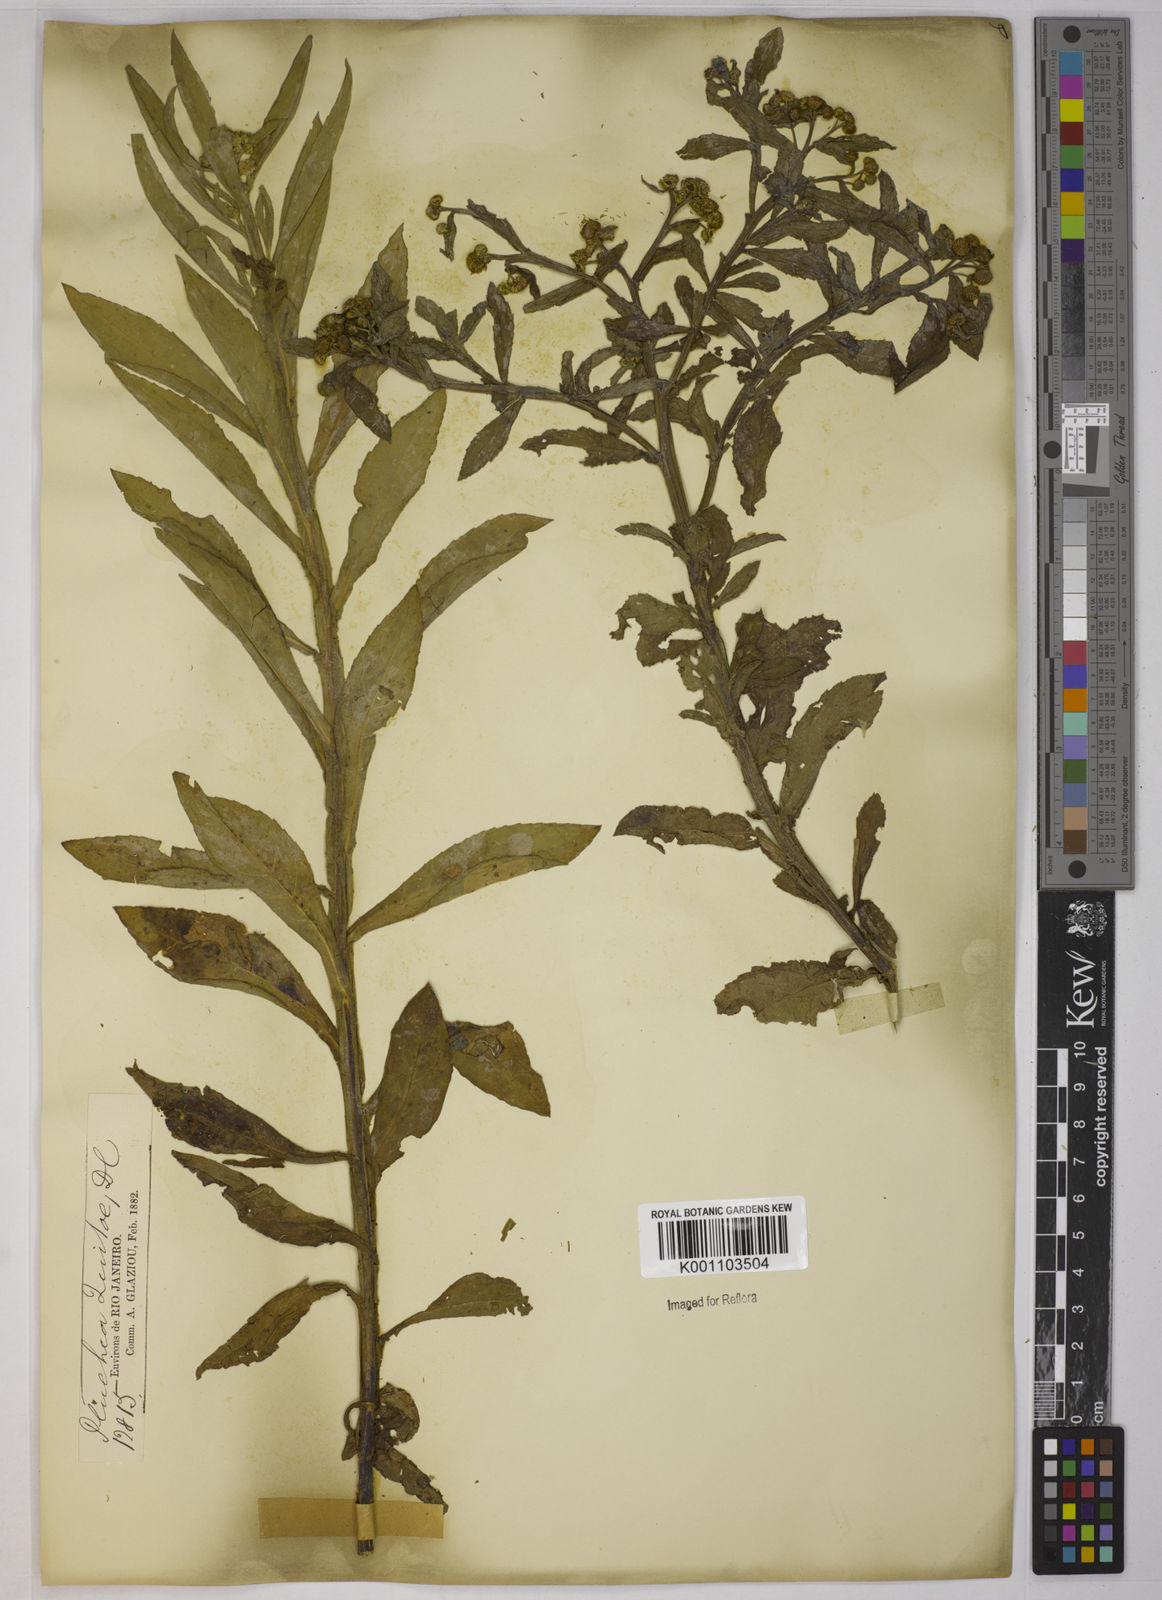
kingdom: Plantae
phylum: Tracheophyta
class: Magnoliopsida
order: Asterales
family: Asteraceae
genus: Pluchea
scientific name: Pluchea sagittalis
